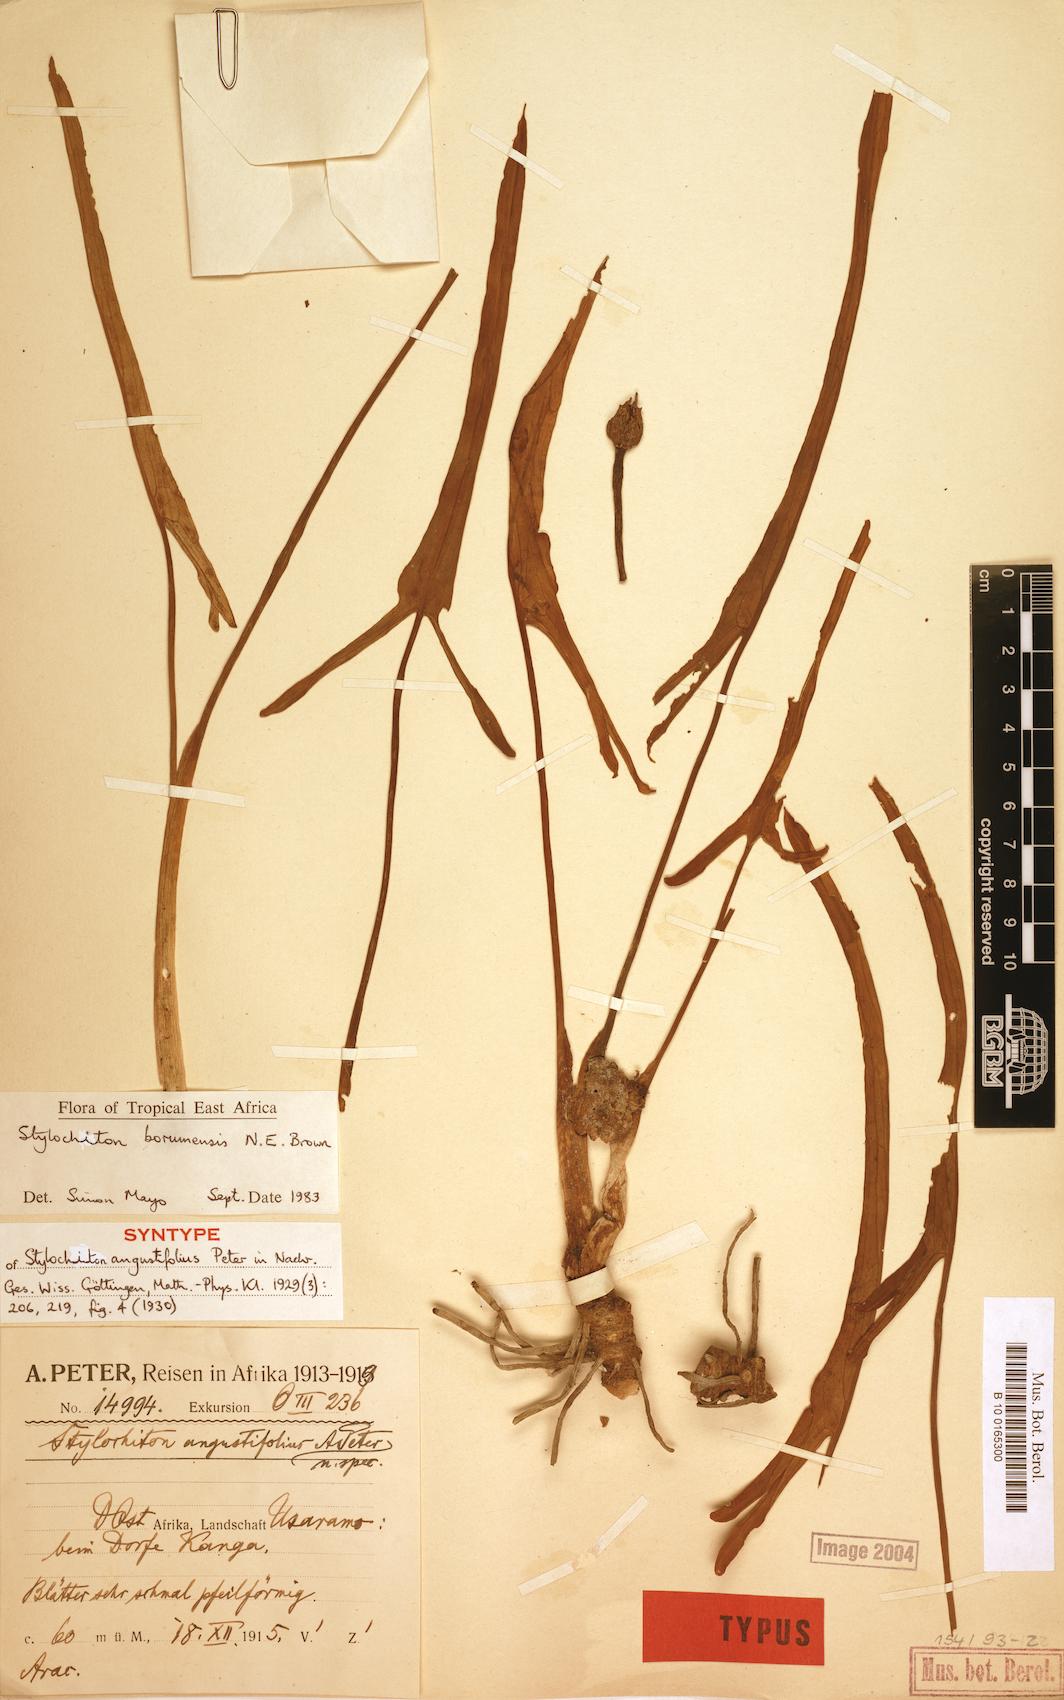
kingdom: Plantae
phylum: Tracheophyta
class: Liliopsida
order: Alismatales
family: Araceae
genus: Stylochiton
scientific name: Stylochiton borumensis
